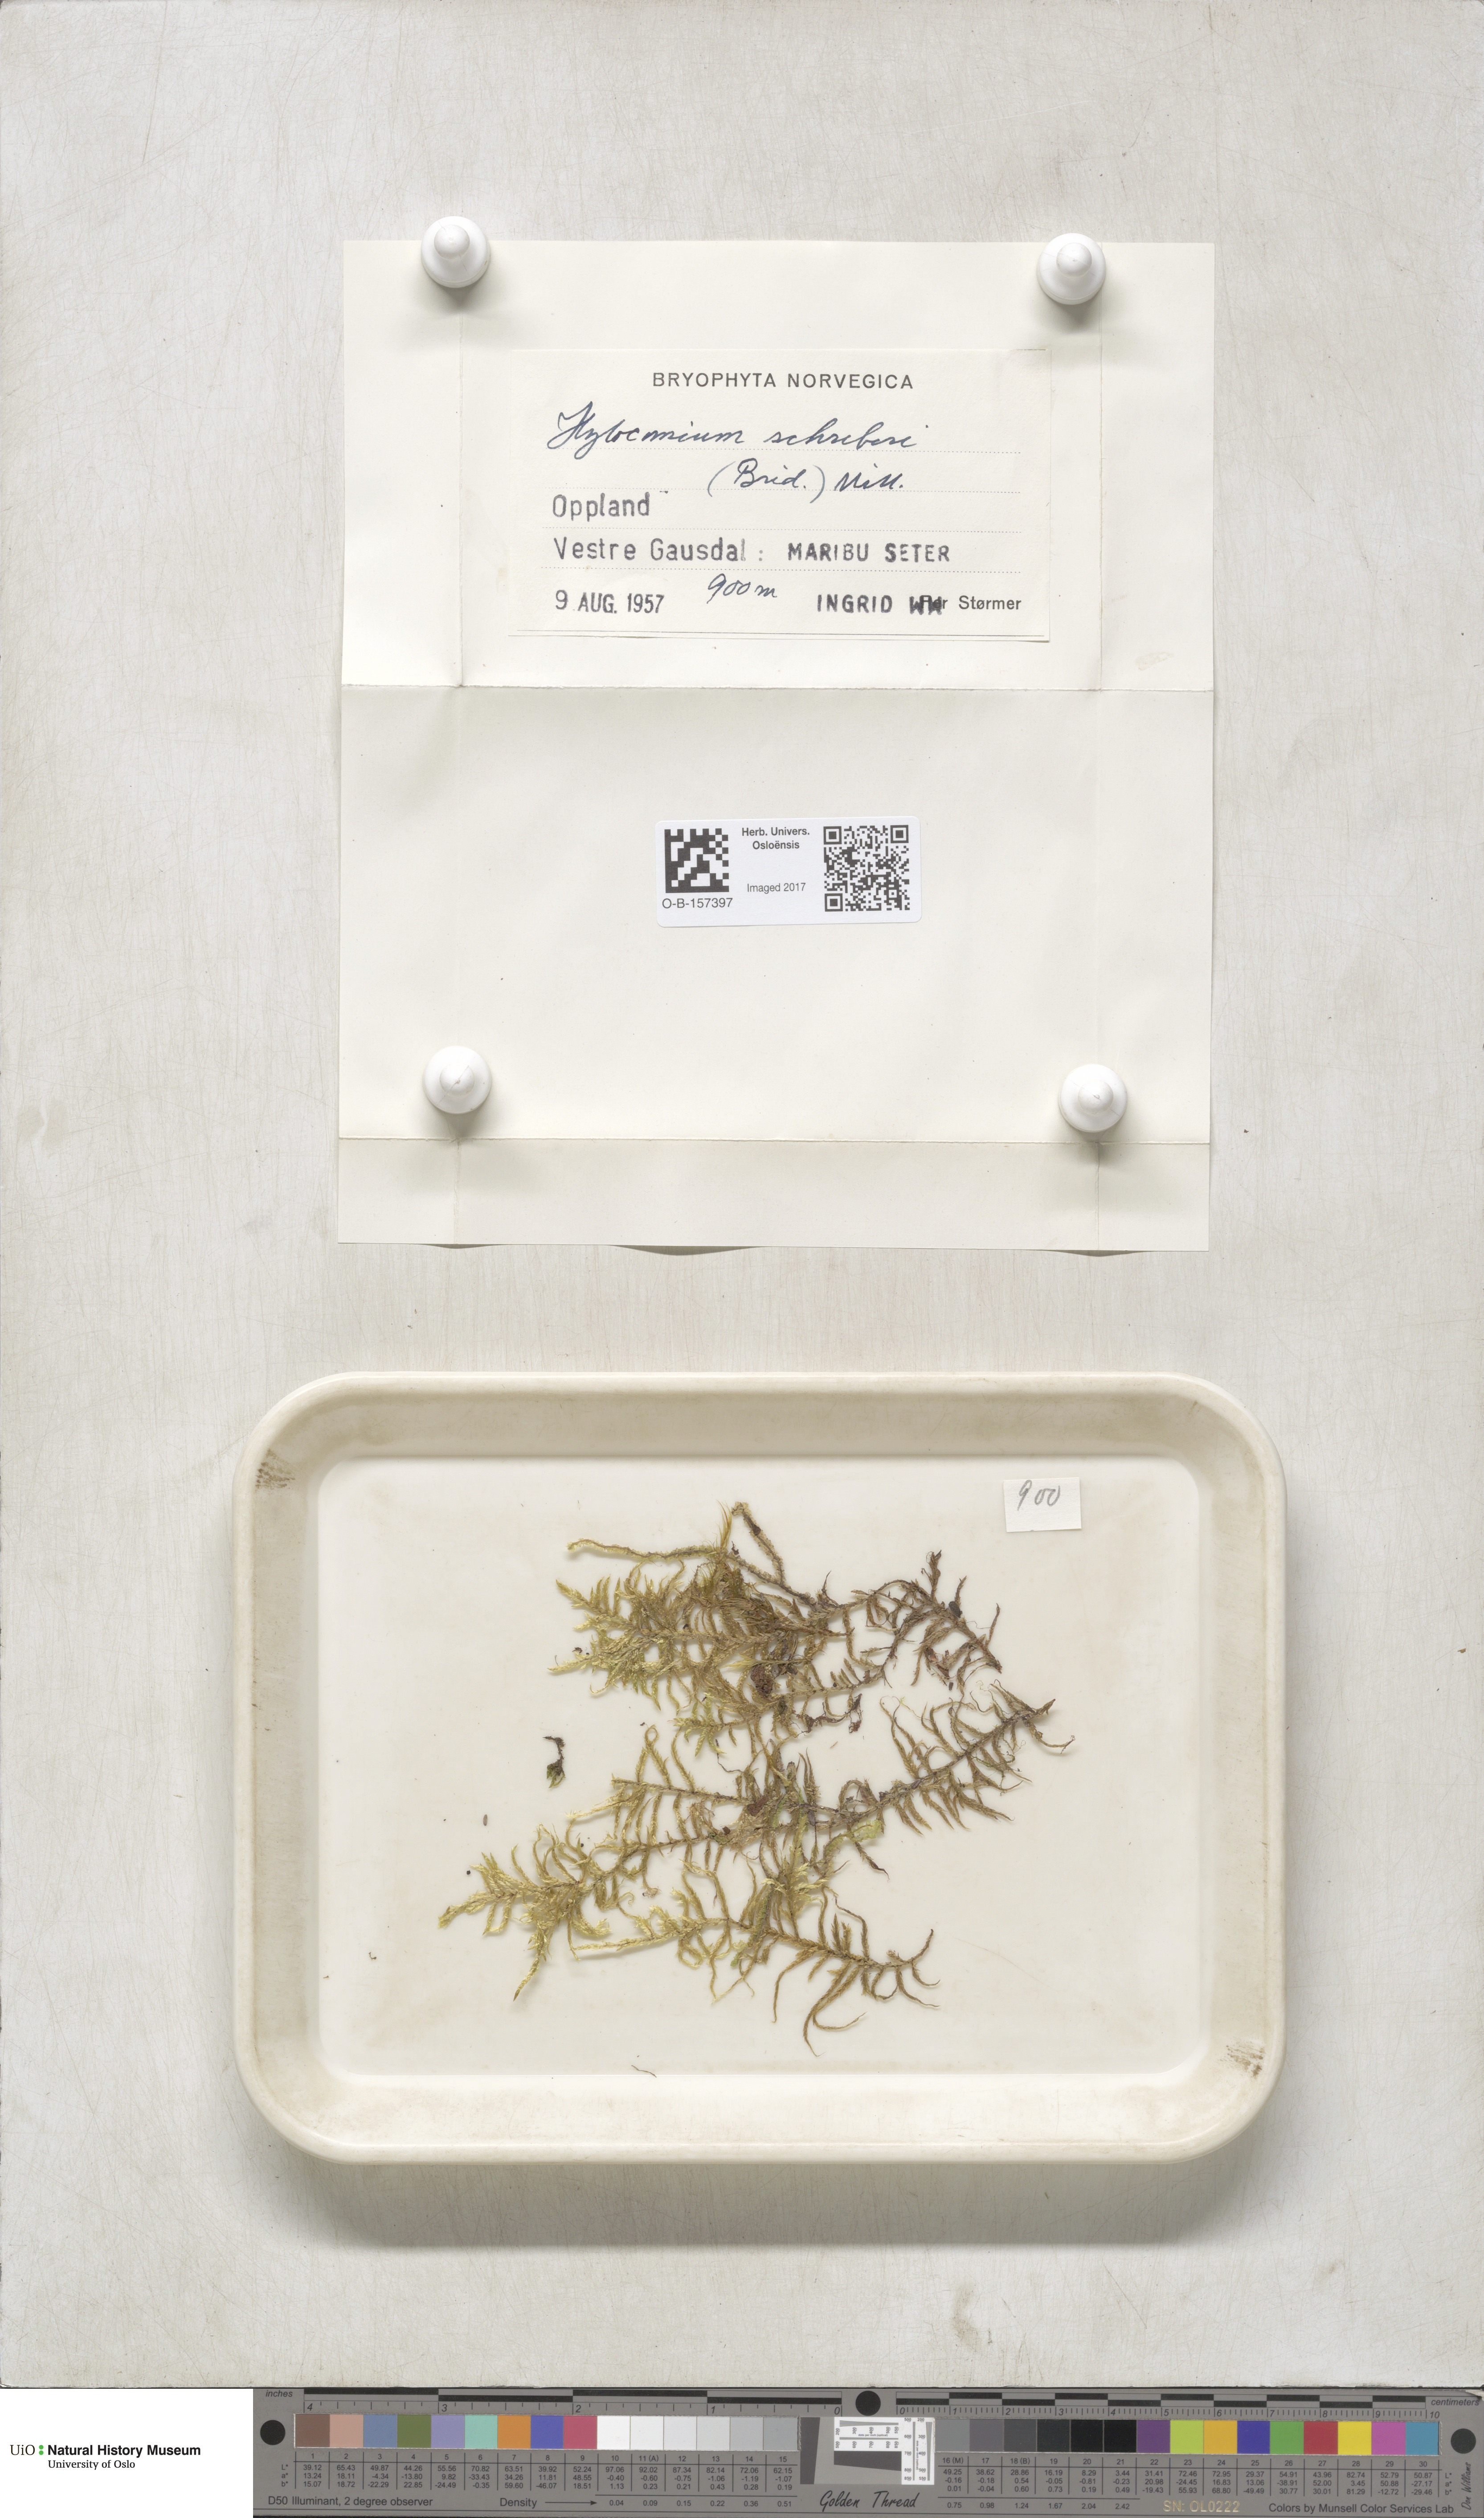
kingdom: Plantae
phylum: Bryophyta
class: Bryopsida
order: Hypnales
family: Hylocomiaceae
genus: Pleurozium
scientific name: Pleurozium schreberi
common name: Red-stemmed feather moss
